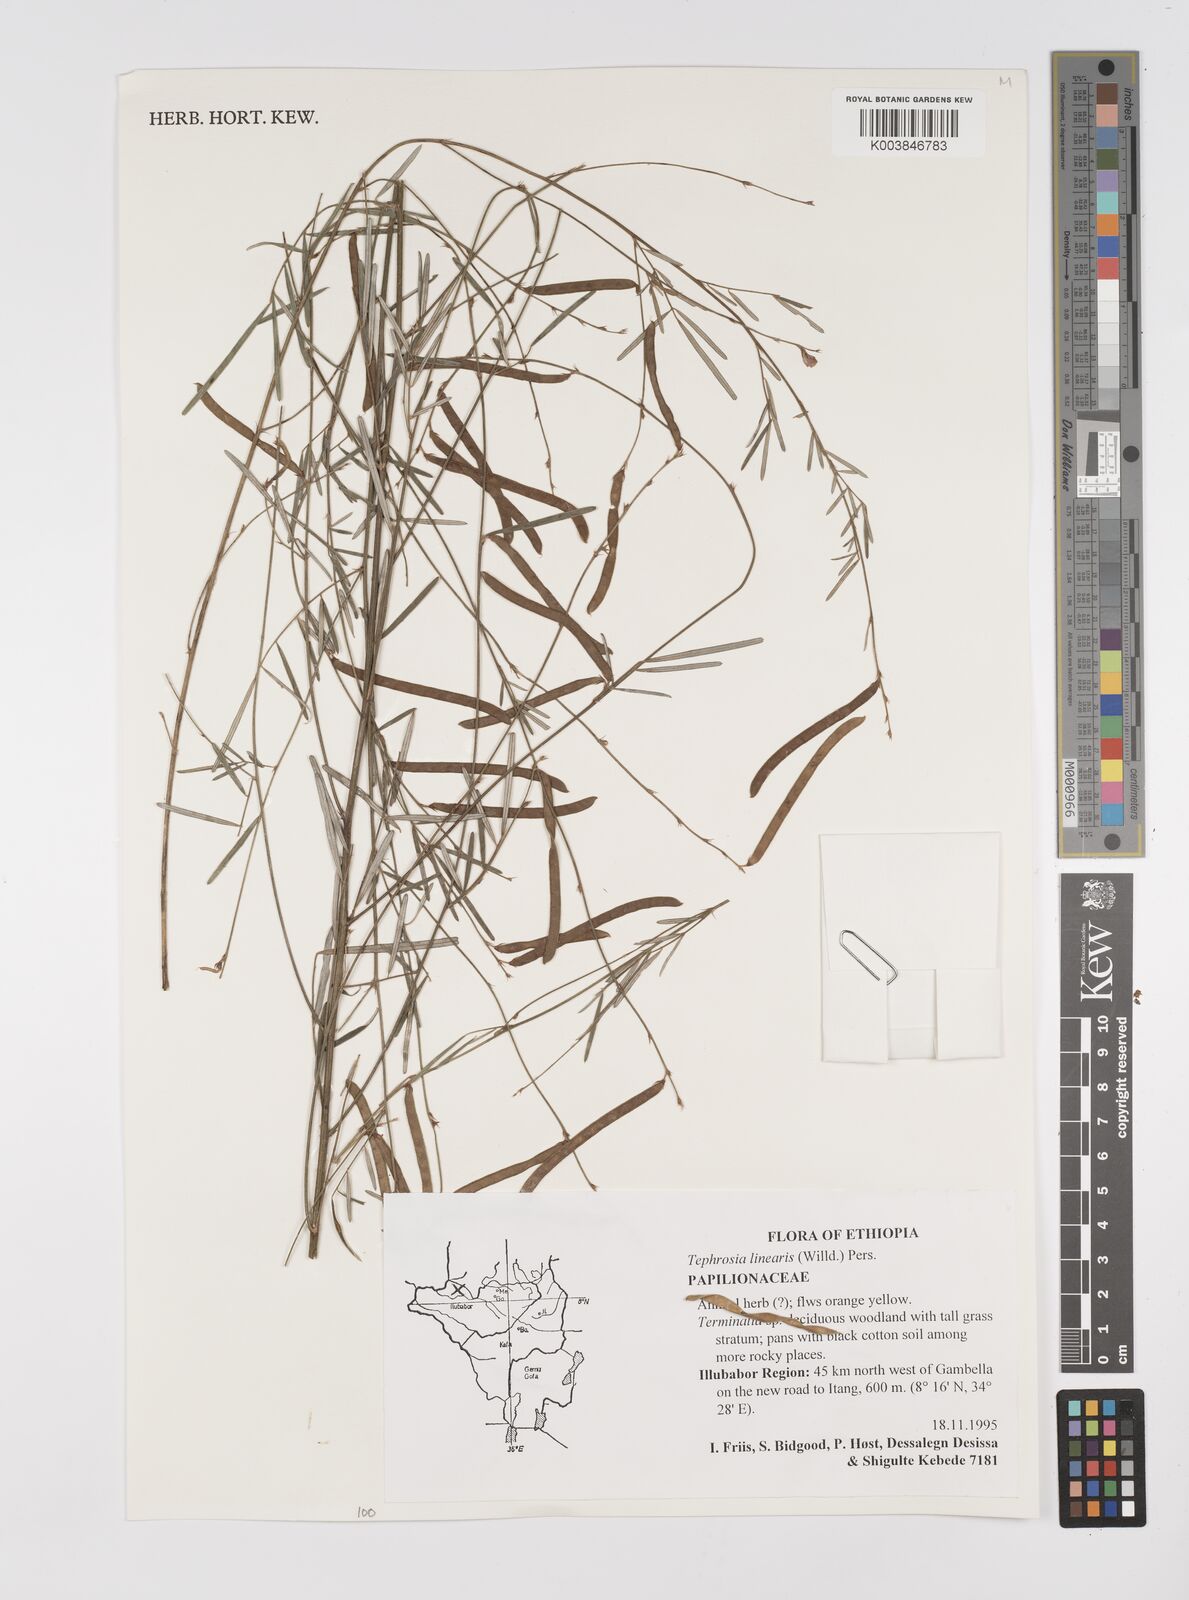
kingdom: Plantae
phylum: Tracheophyta
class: Magnoliopsida
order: Fabales
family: Fabaceae
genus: Tephrosia
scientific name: Tephrosia linearis
